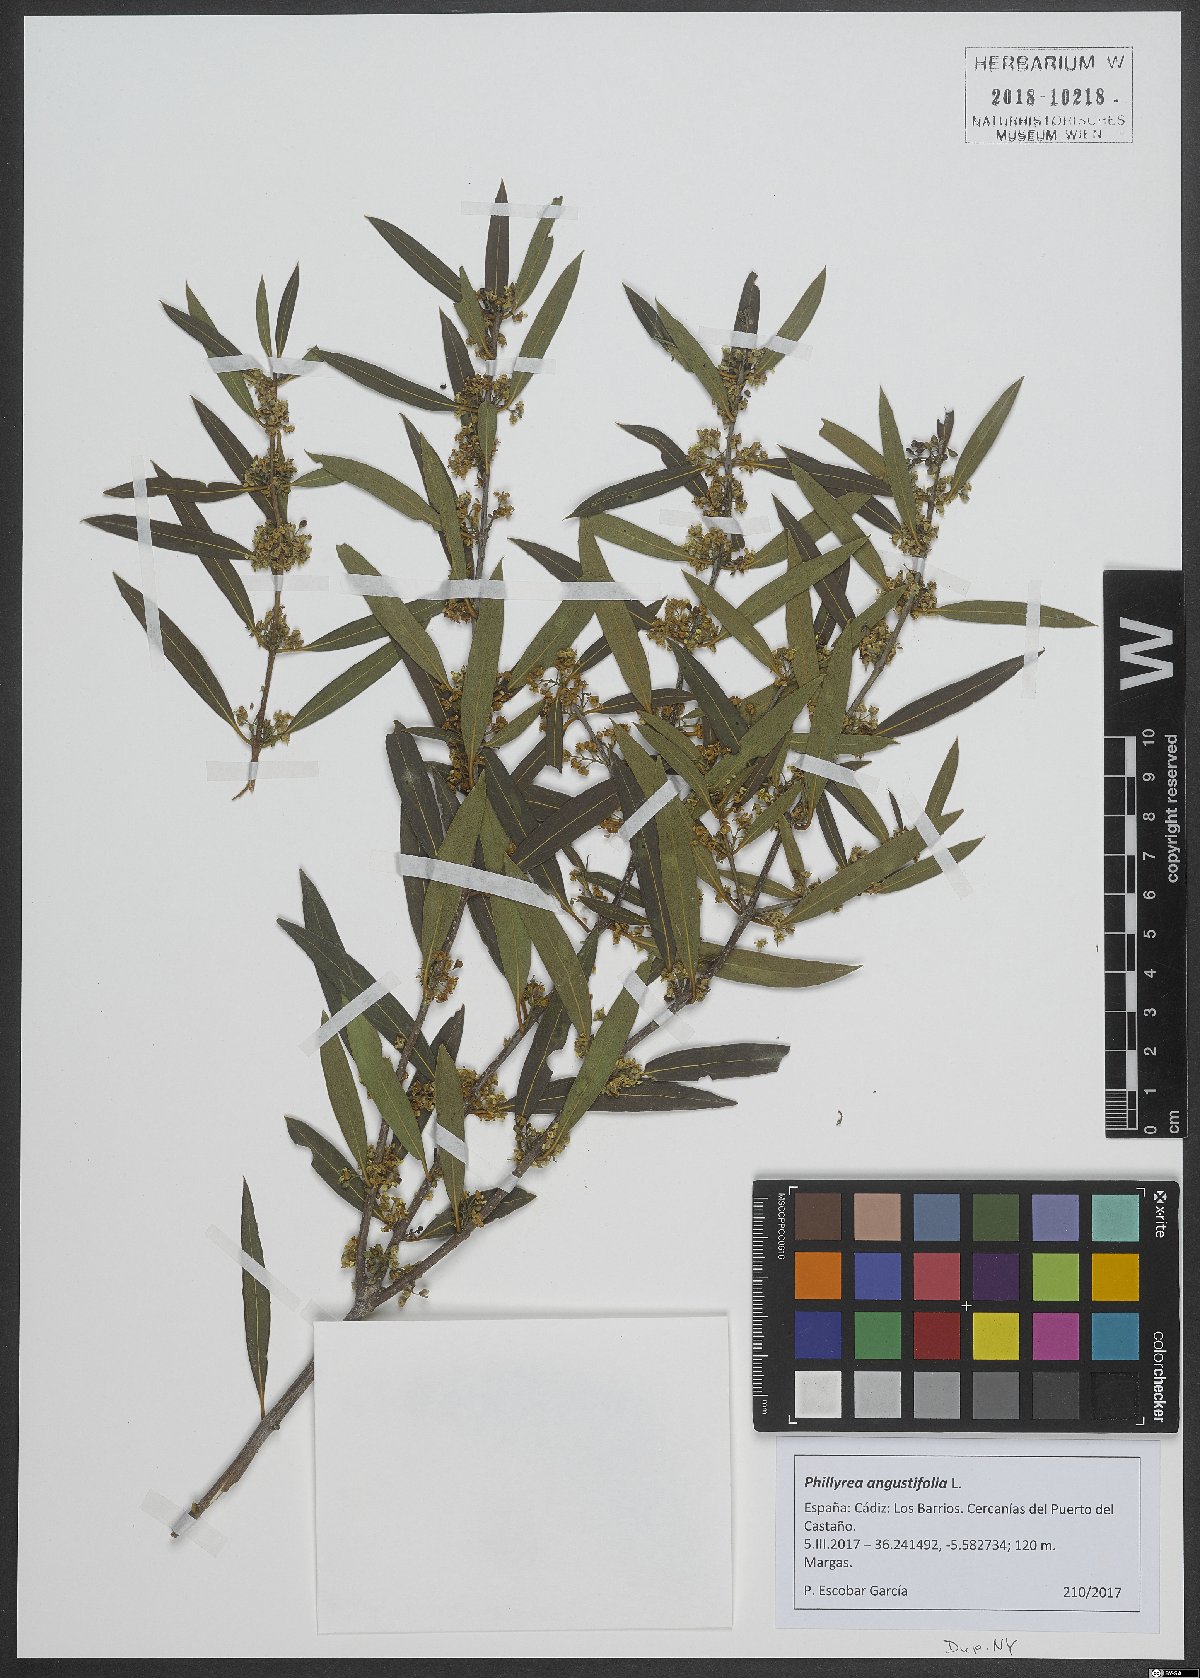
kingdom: Plantae
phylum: Tracheophyta
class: Magnoliopsida
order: Lamiales
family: Oleaceae
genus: Phillyrea
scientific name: Phillyrea angustifolia
